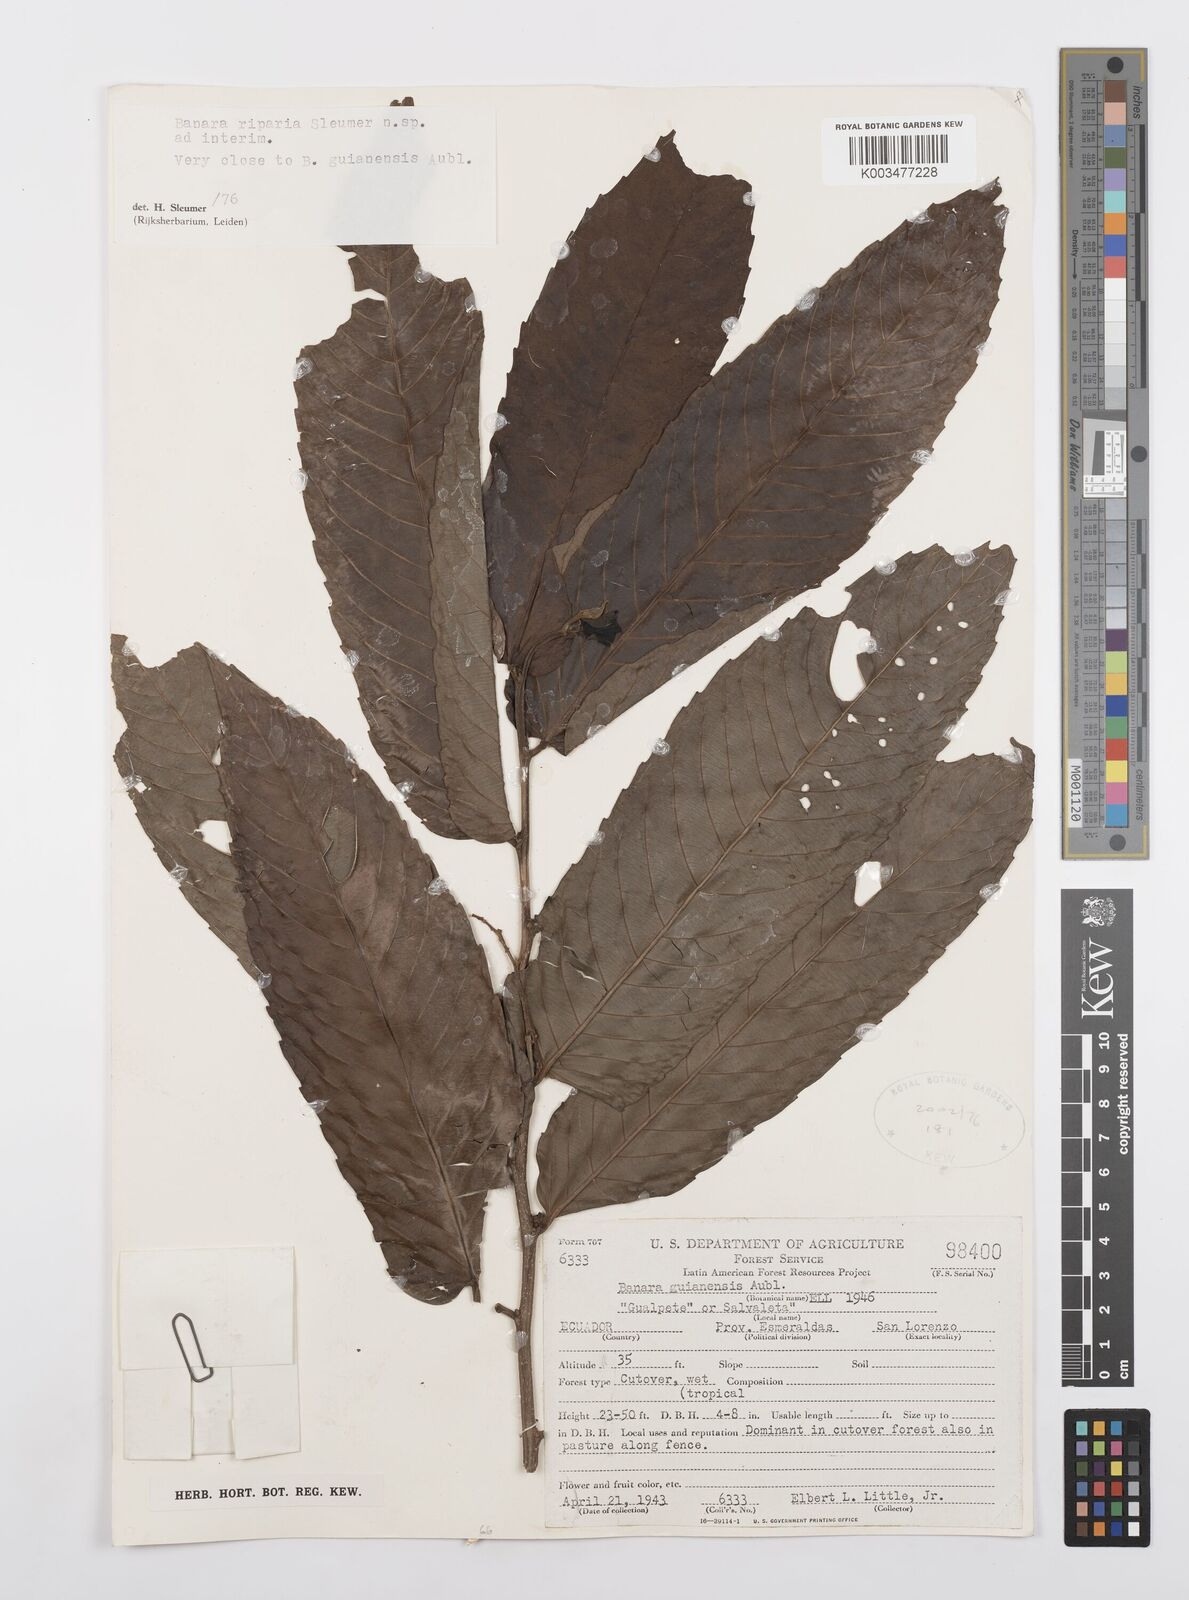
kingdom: Plantae
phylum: Tracheophyta
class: Magnoliopsida
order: Malpighiales
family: Salicaceae
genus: Banara
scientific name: Banara riparia
